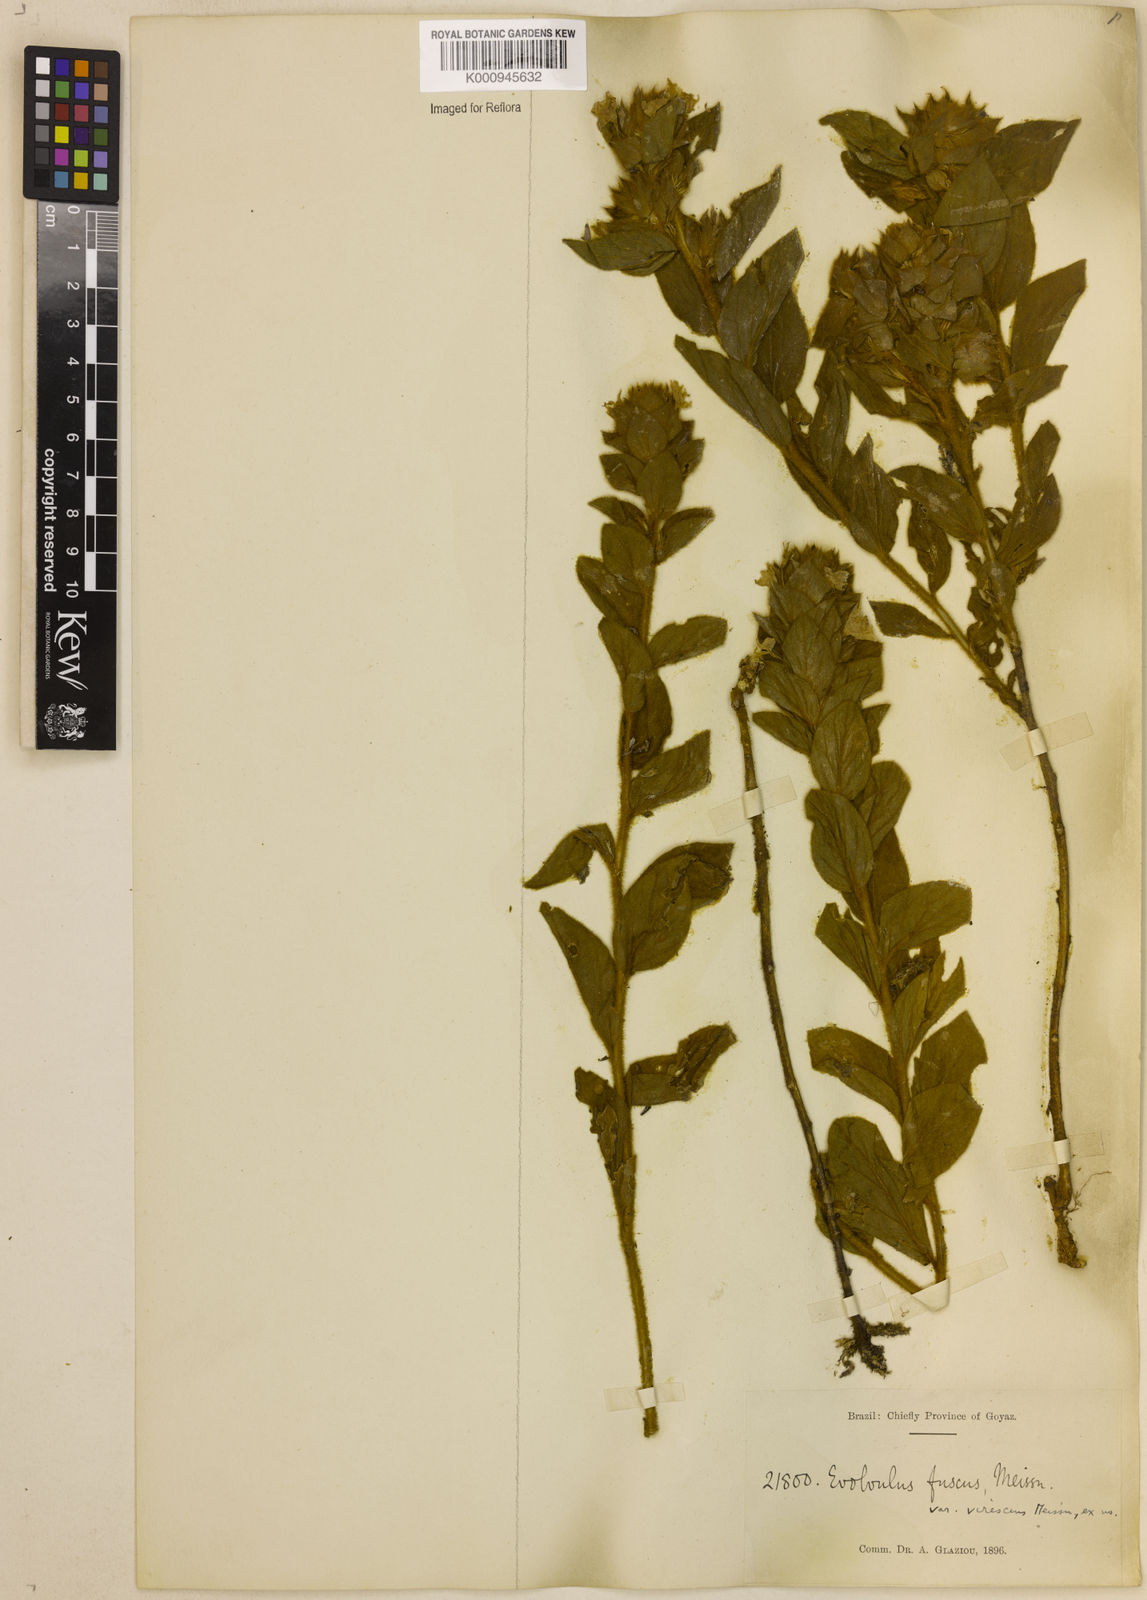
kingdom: Plantae
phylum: Tracheophyta
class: Magnoliopsida
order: Solanales
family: Convolvulaceae
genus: Evolvulus
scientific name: Evolvulus fuscus
